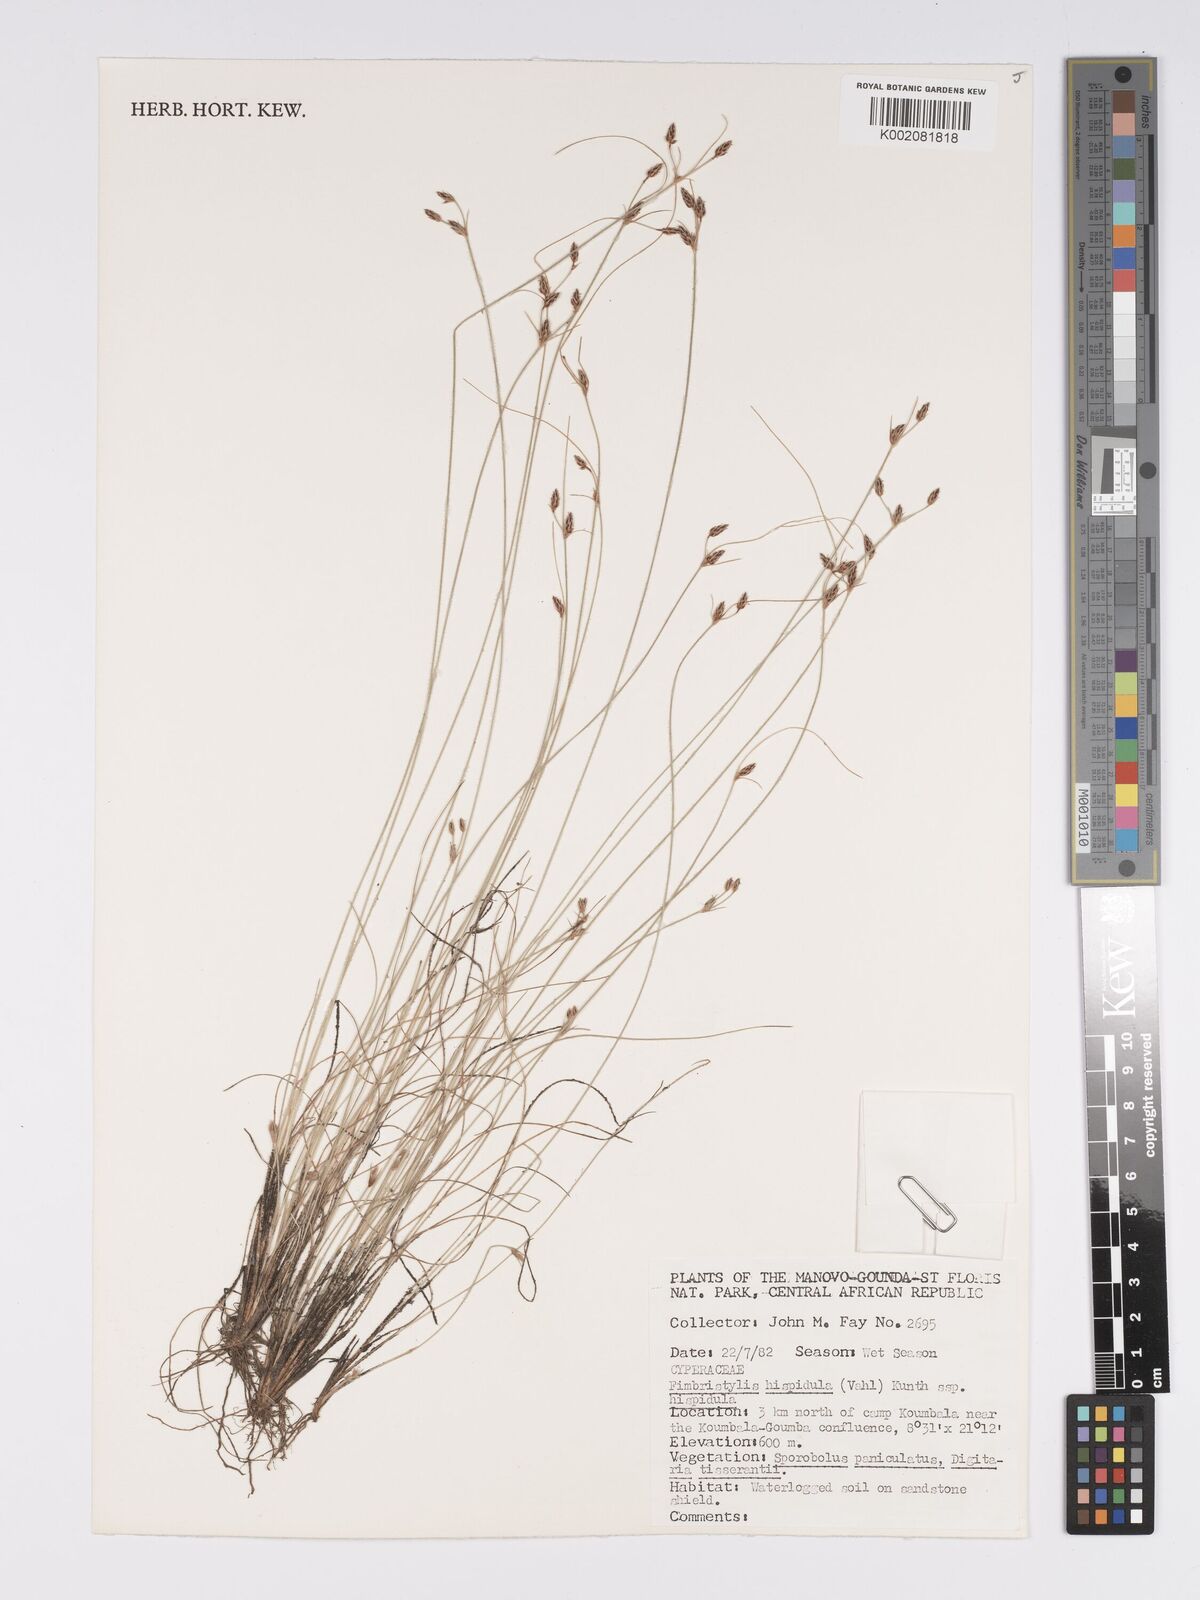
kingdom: Plantae
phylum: Tracheophyta
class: Liliopsida
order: Poales
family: Cyperaceae
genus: Bulbostylis
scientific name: Bulbostylis hispidula
